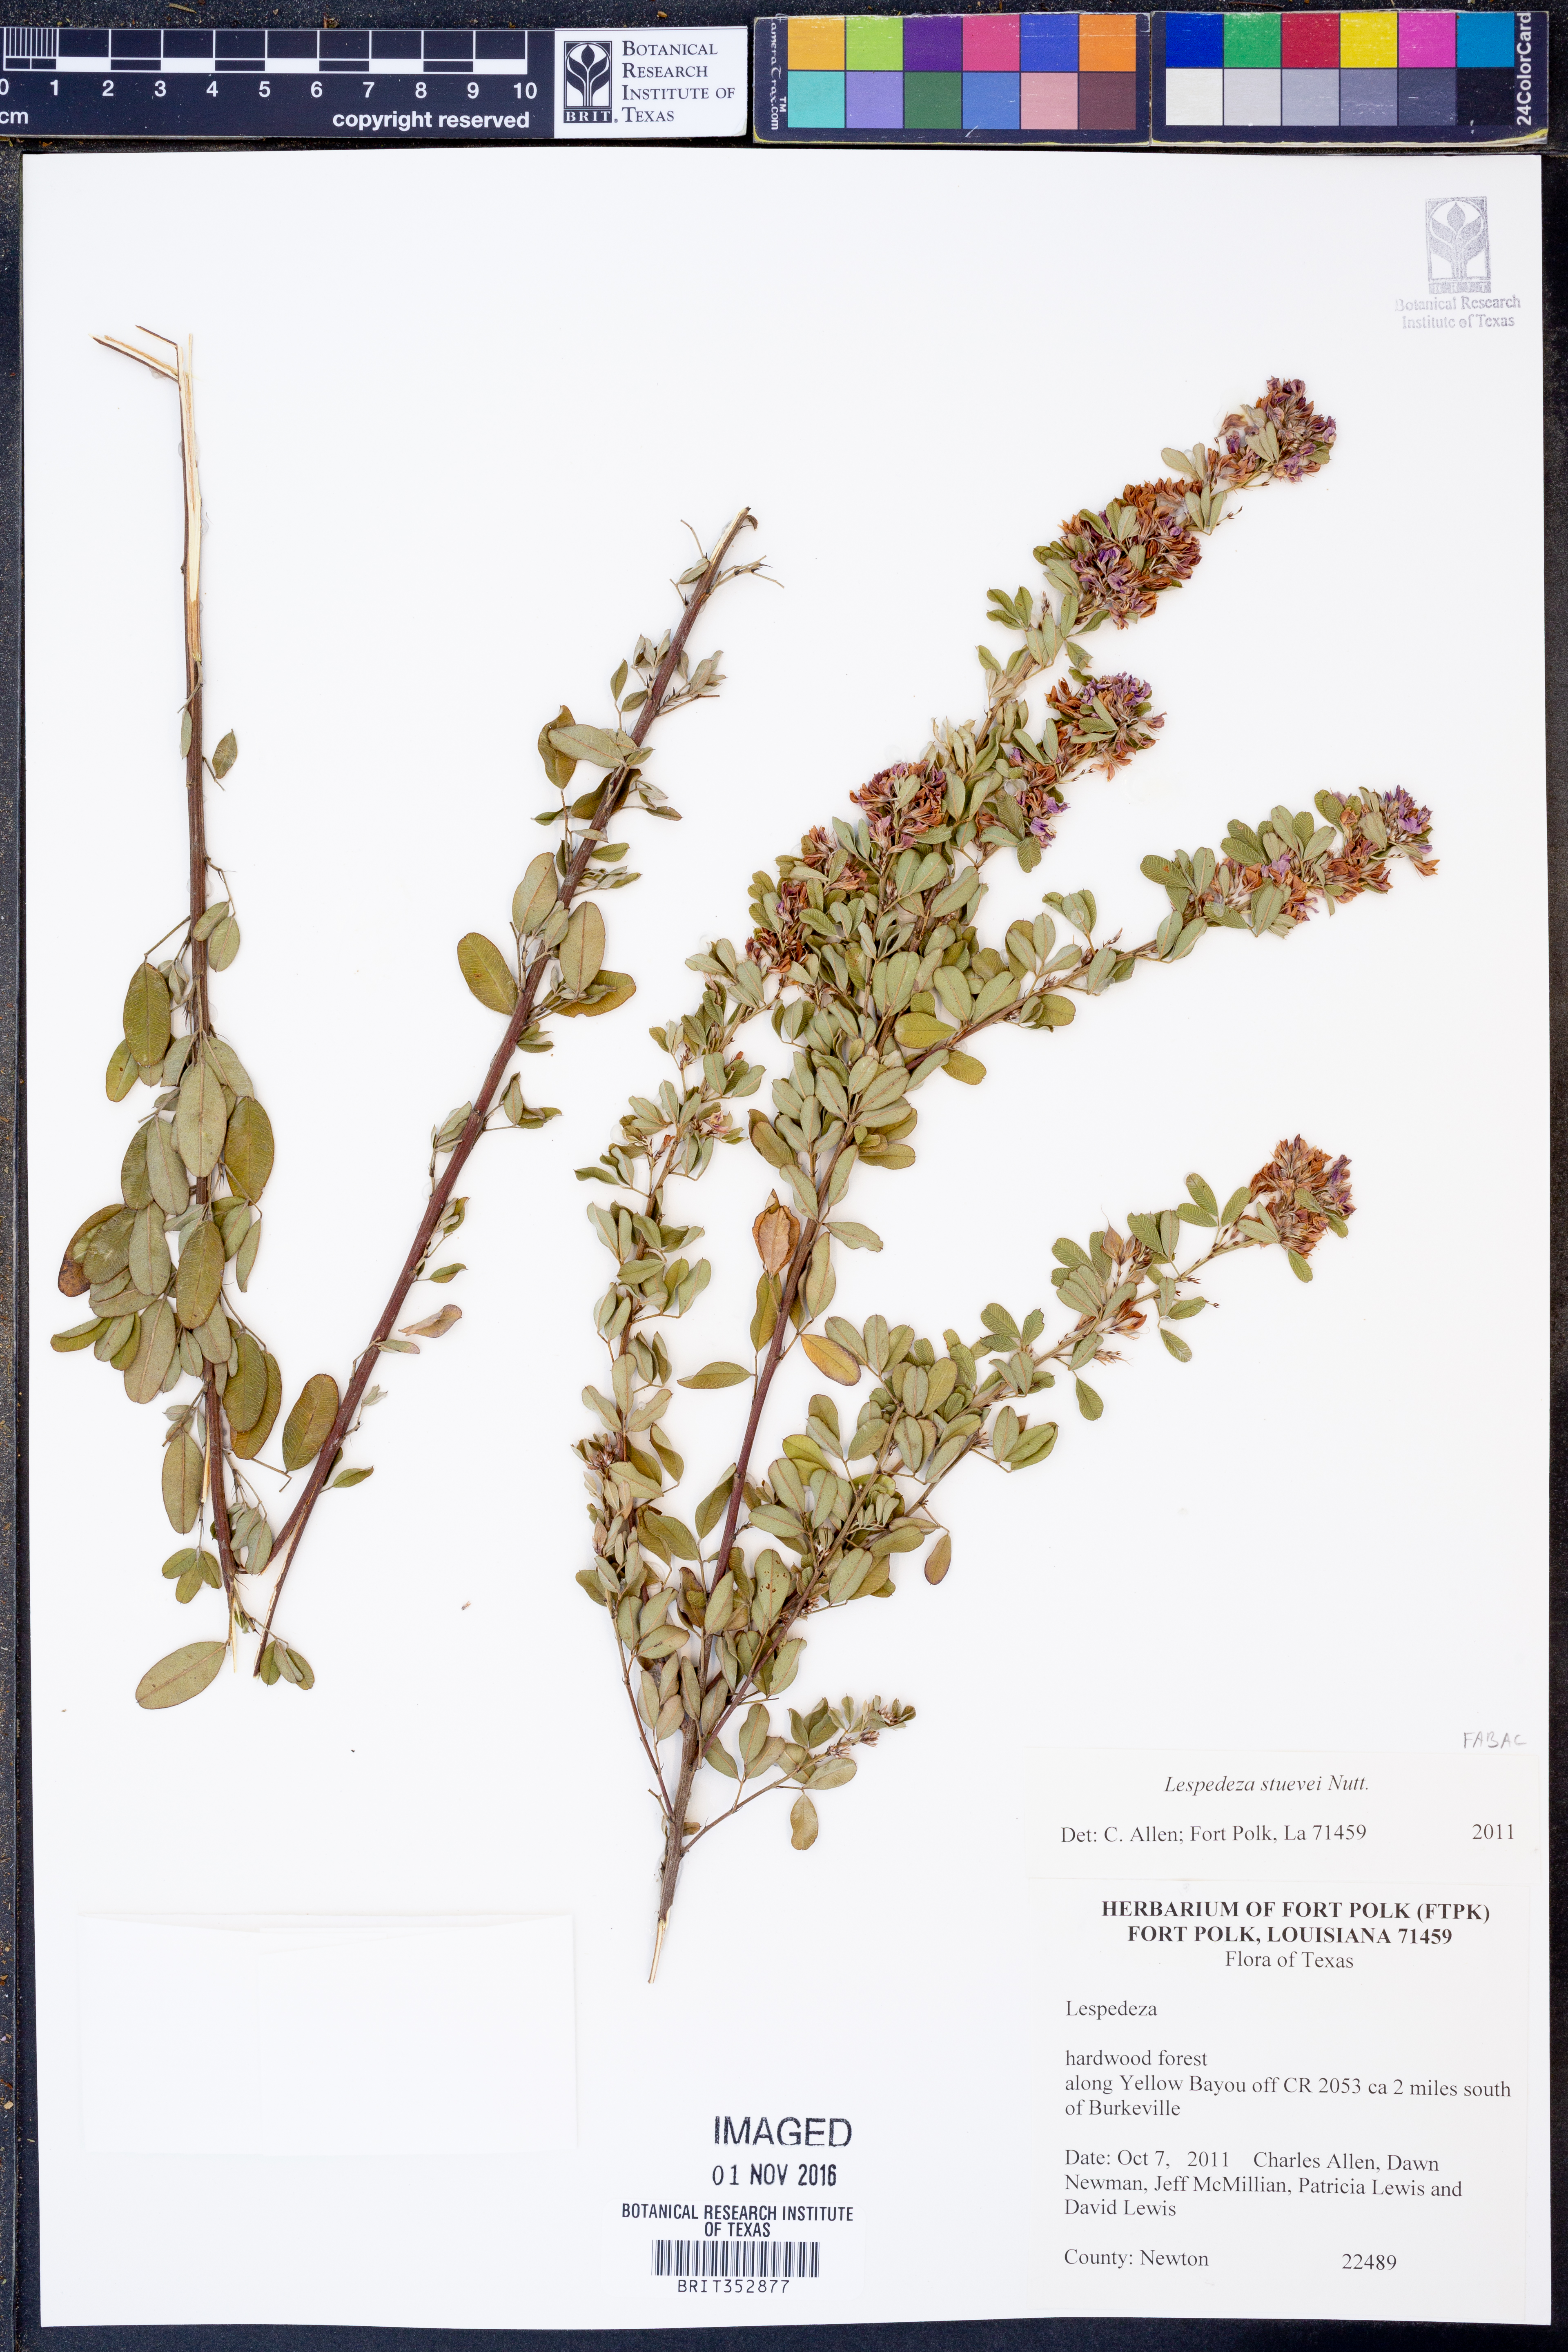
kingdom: Plantae
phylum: Tracheophyta
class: Magnoliopsida
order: Fabales
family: Fabaceae
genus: Lespedeza
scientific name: Lespedeza stuevei
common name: Tall bush-clover
